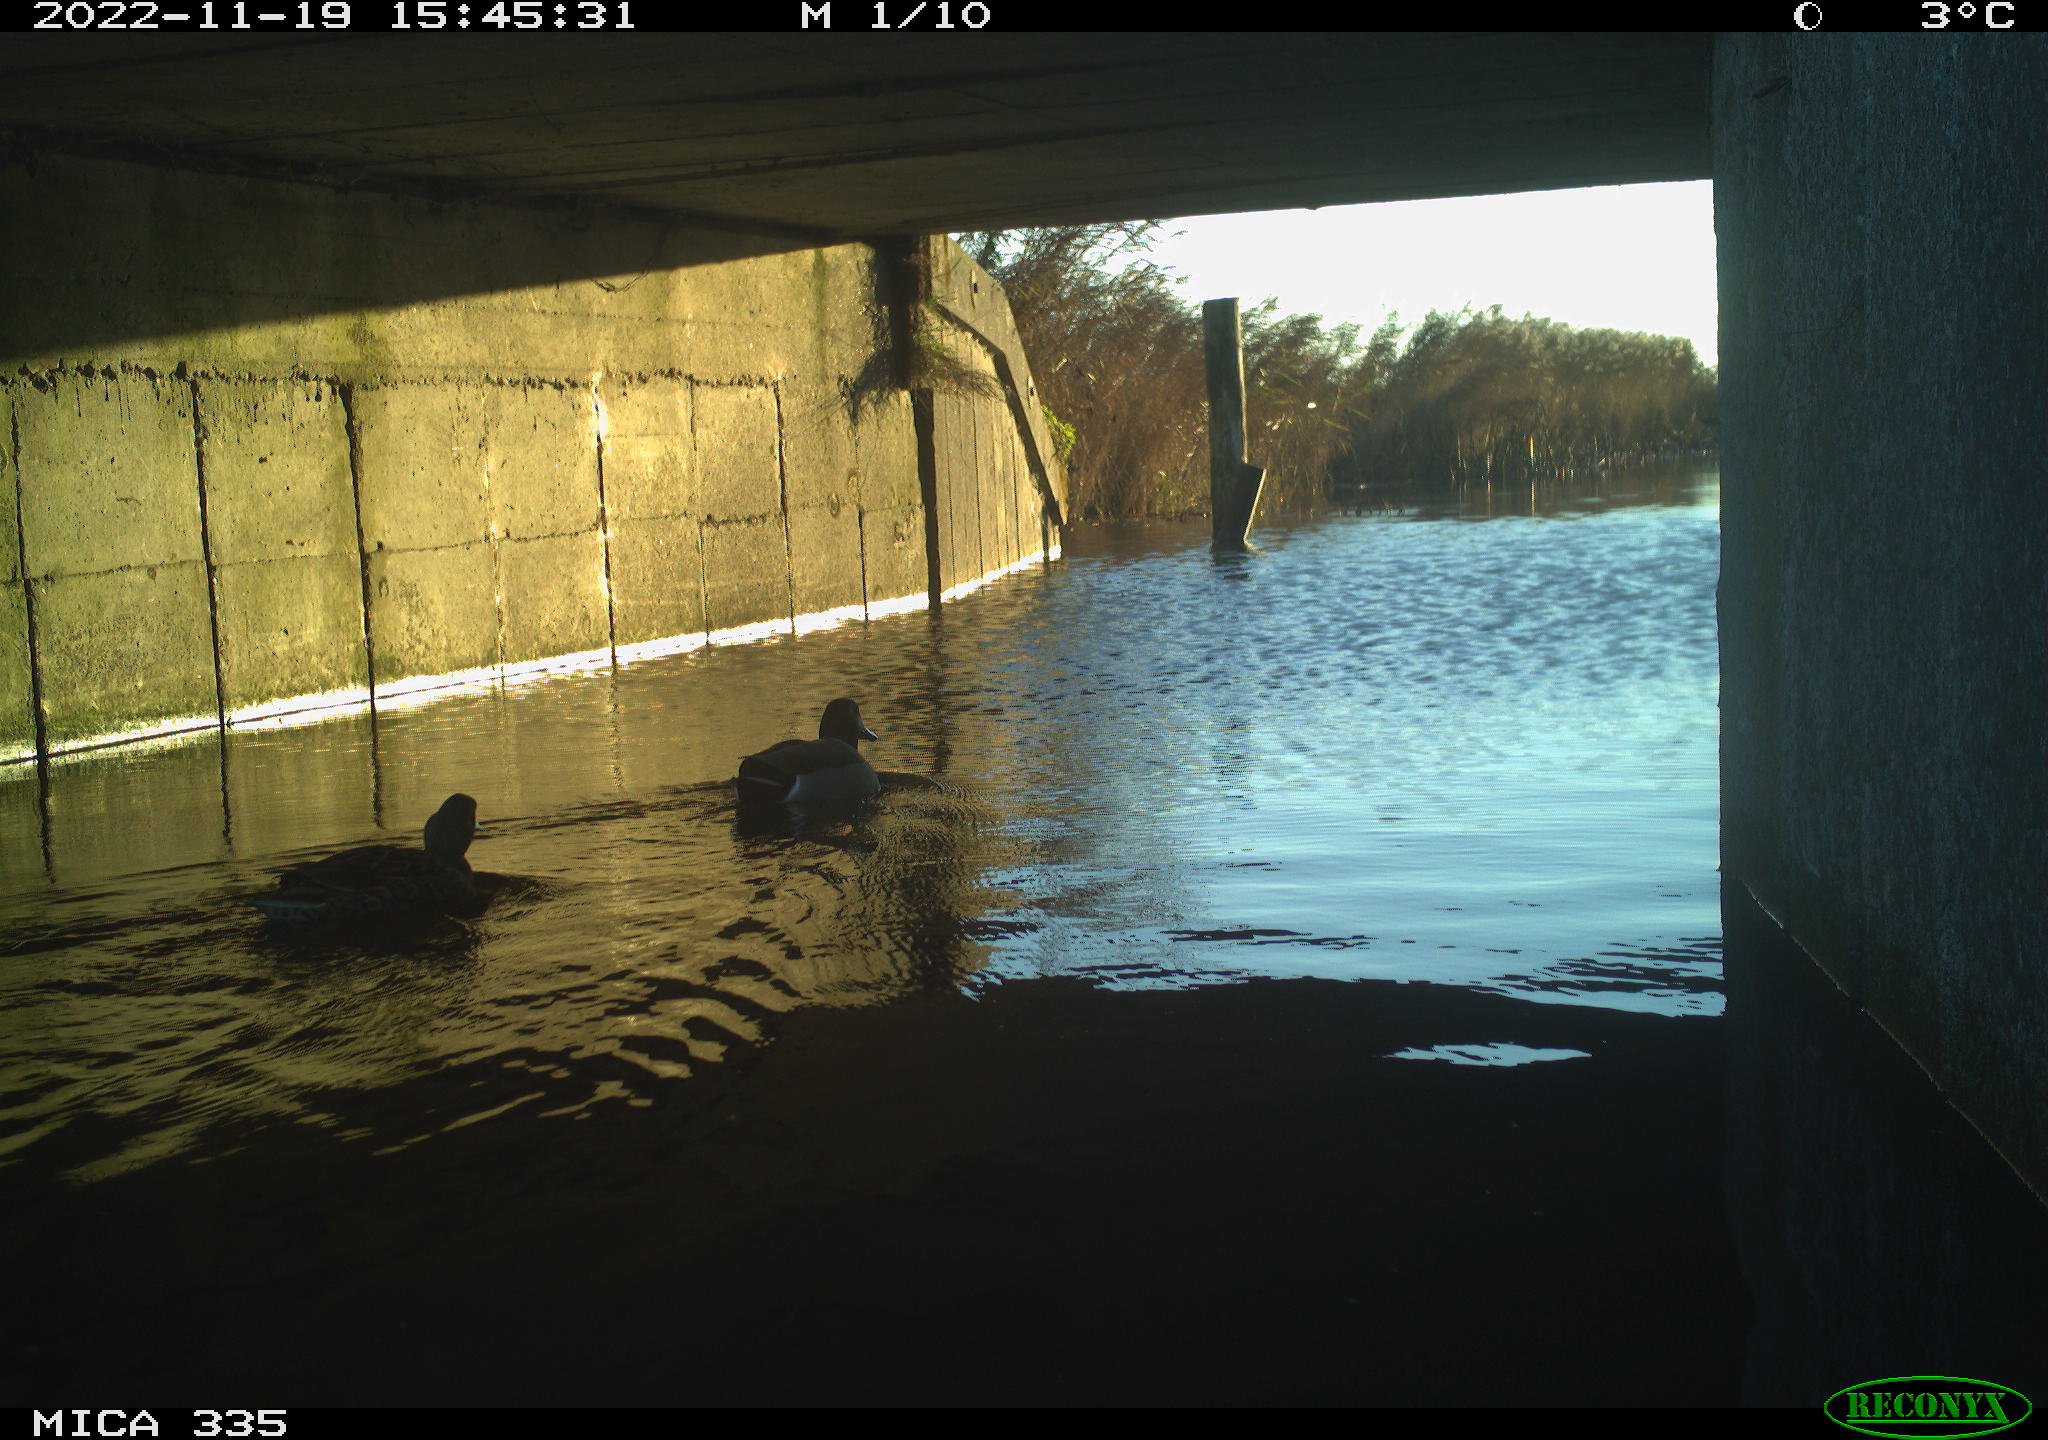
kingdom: Animalia
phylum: Chordata
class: Aves
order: Gruiformes
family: Rallidae
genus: Fulica
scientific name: Fulica atra
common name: Eurasian coot
